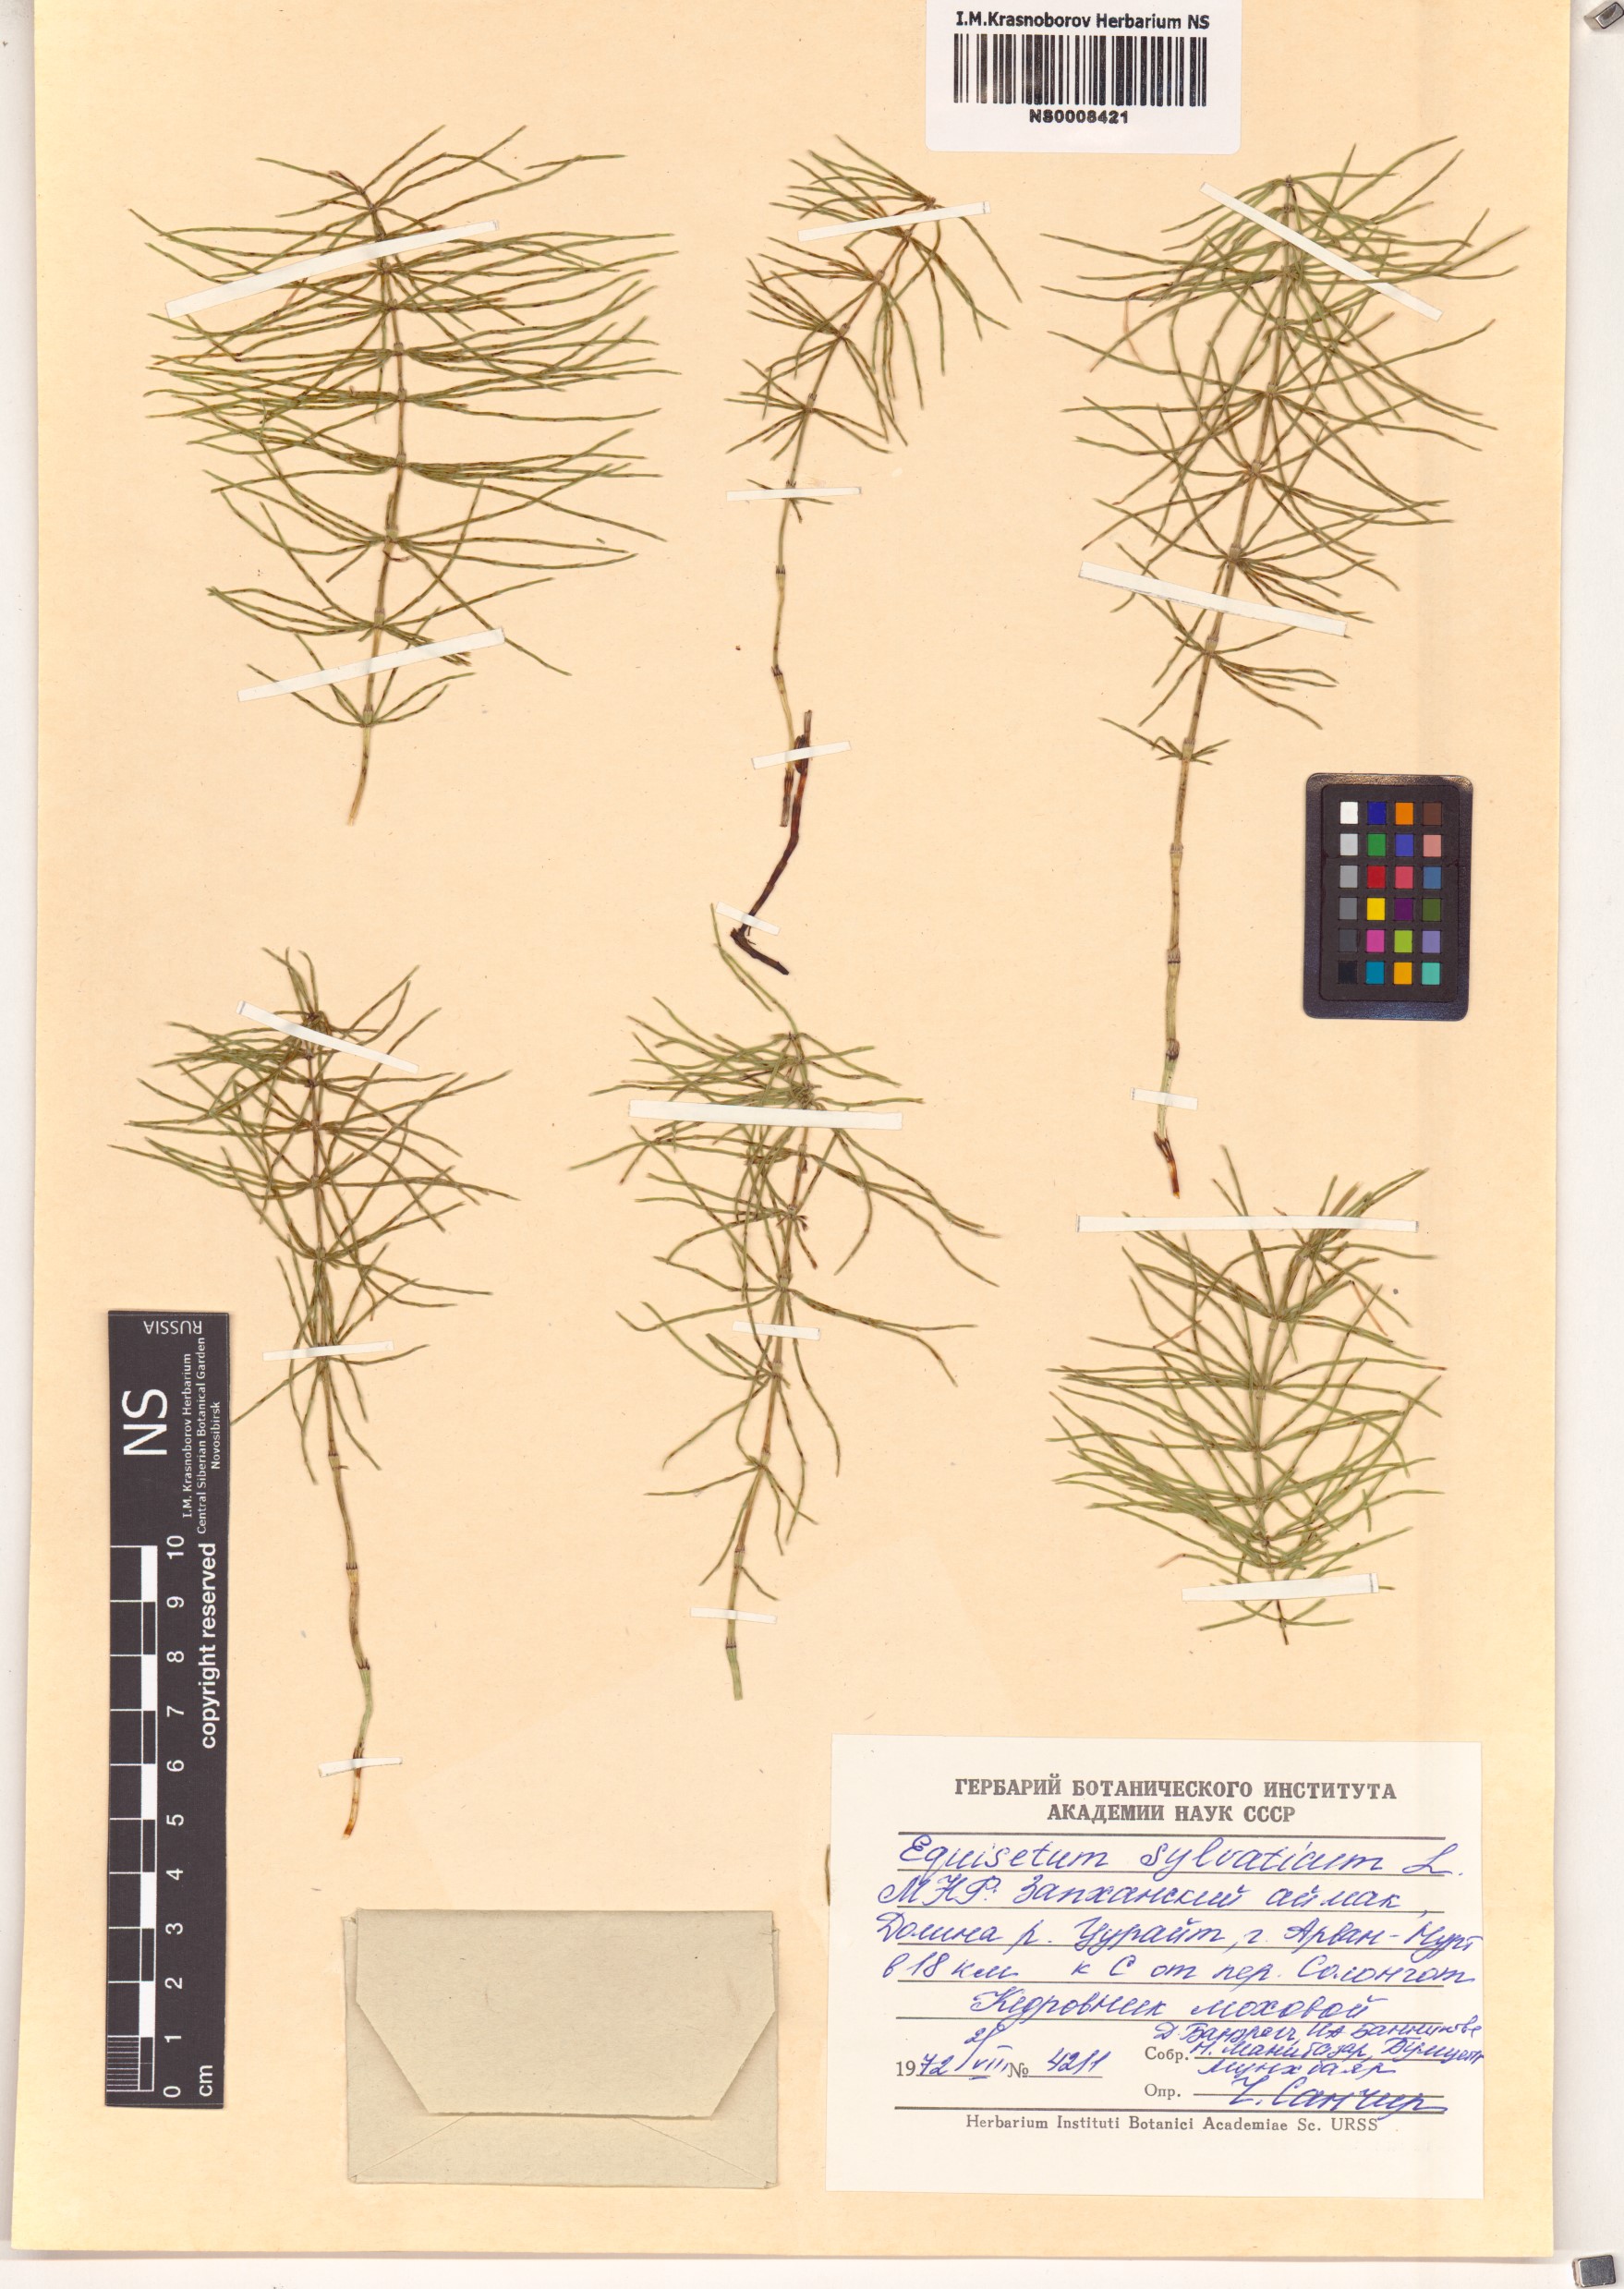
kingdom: Plantae
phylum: Tracheophyta
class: Polypodiopsida
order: Equisetales
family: Equisetaceae
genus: Equisetum
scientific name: Equisetum sylvaticum
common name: Wood horsetail
